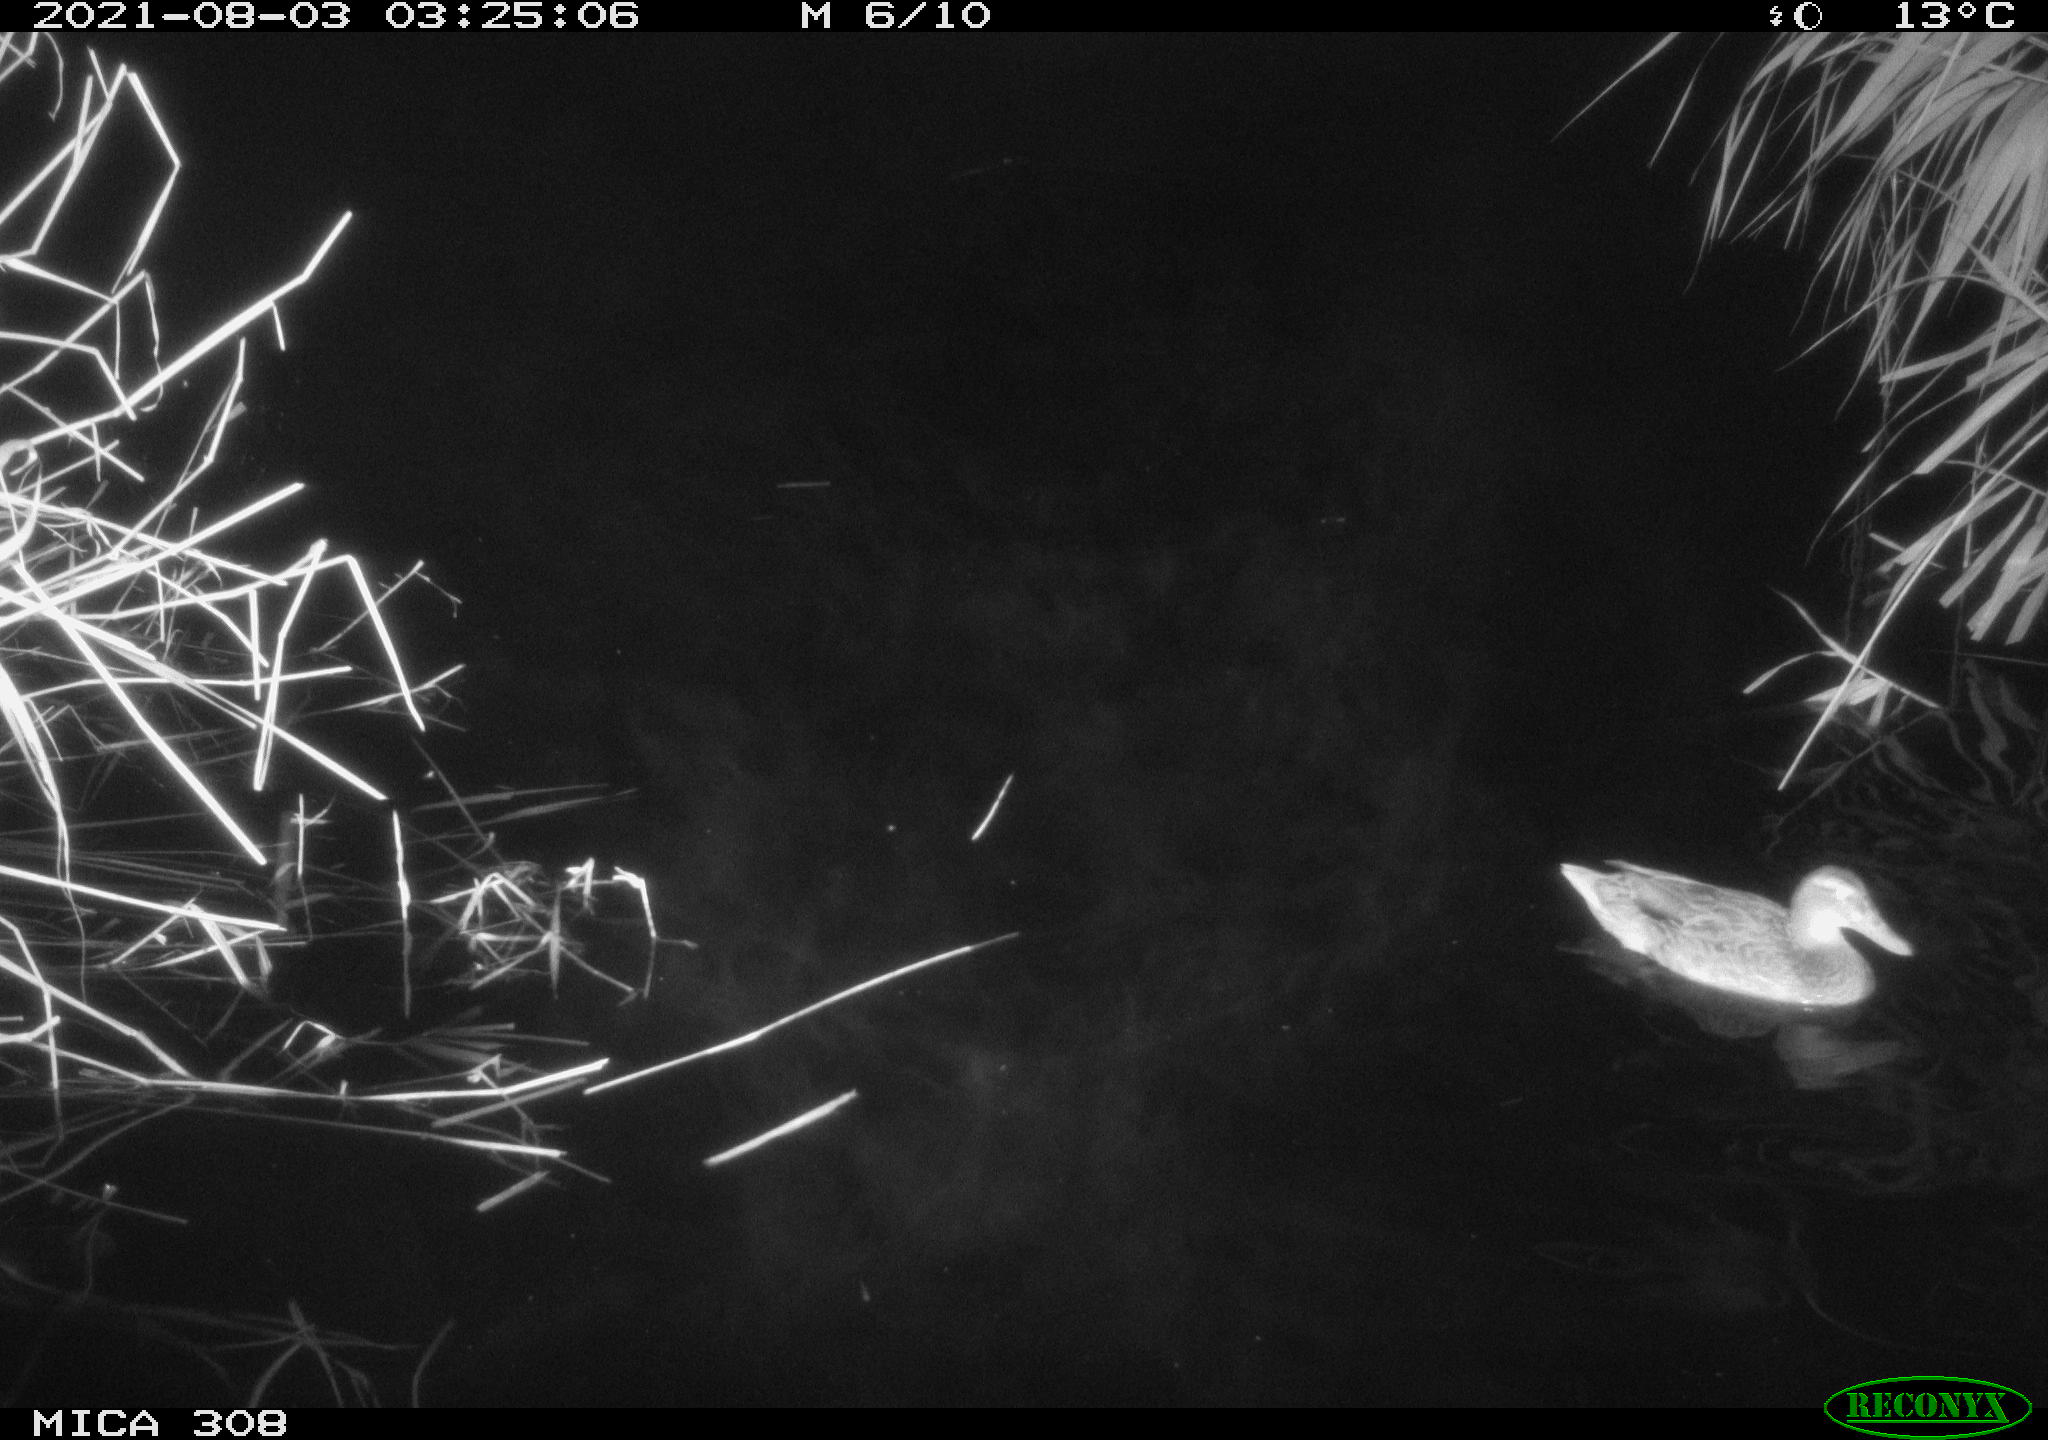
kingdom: Animalia
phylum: Chordata
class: Aves
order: Gruiformes
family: Rallidae
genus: Gallinula
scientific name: Gallinula chloropus
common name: Common moorhen
